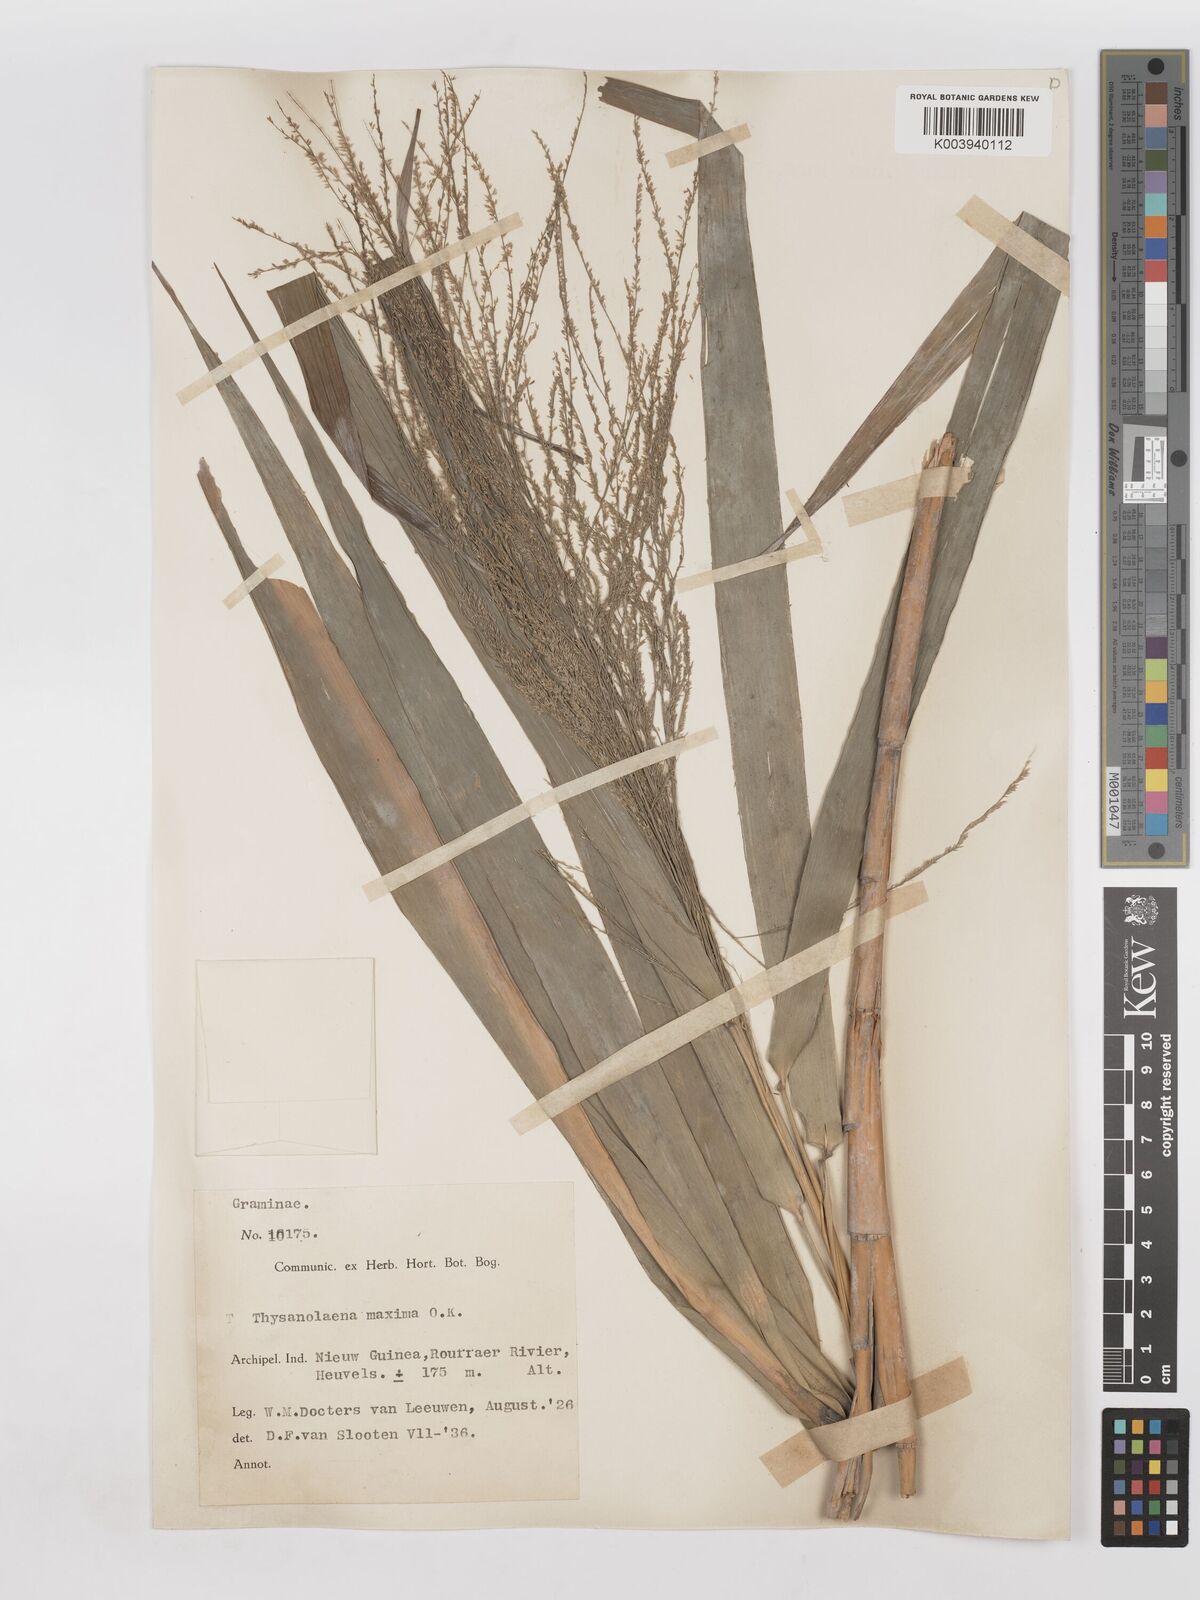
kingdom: Plantae
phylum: Tracheophyta
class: Liliopsida
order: Poales
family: Poaceae
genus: Thysanolaena
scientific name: Thysanolaena latifolia
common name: Tiger grass
